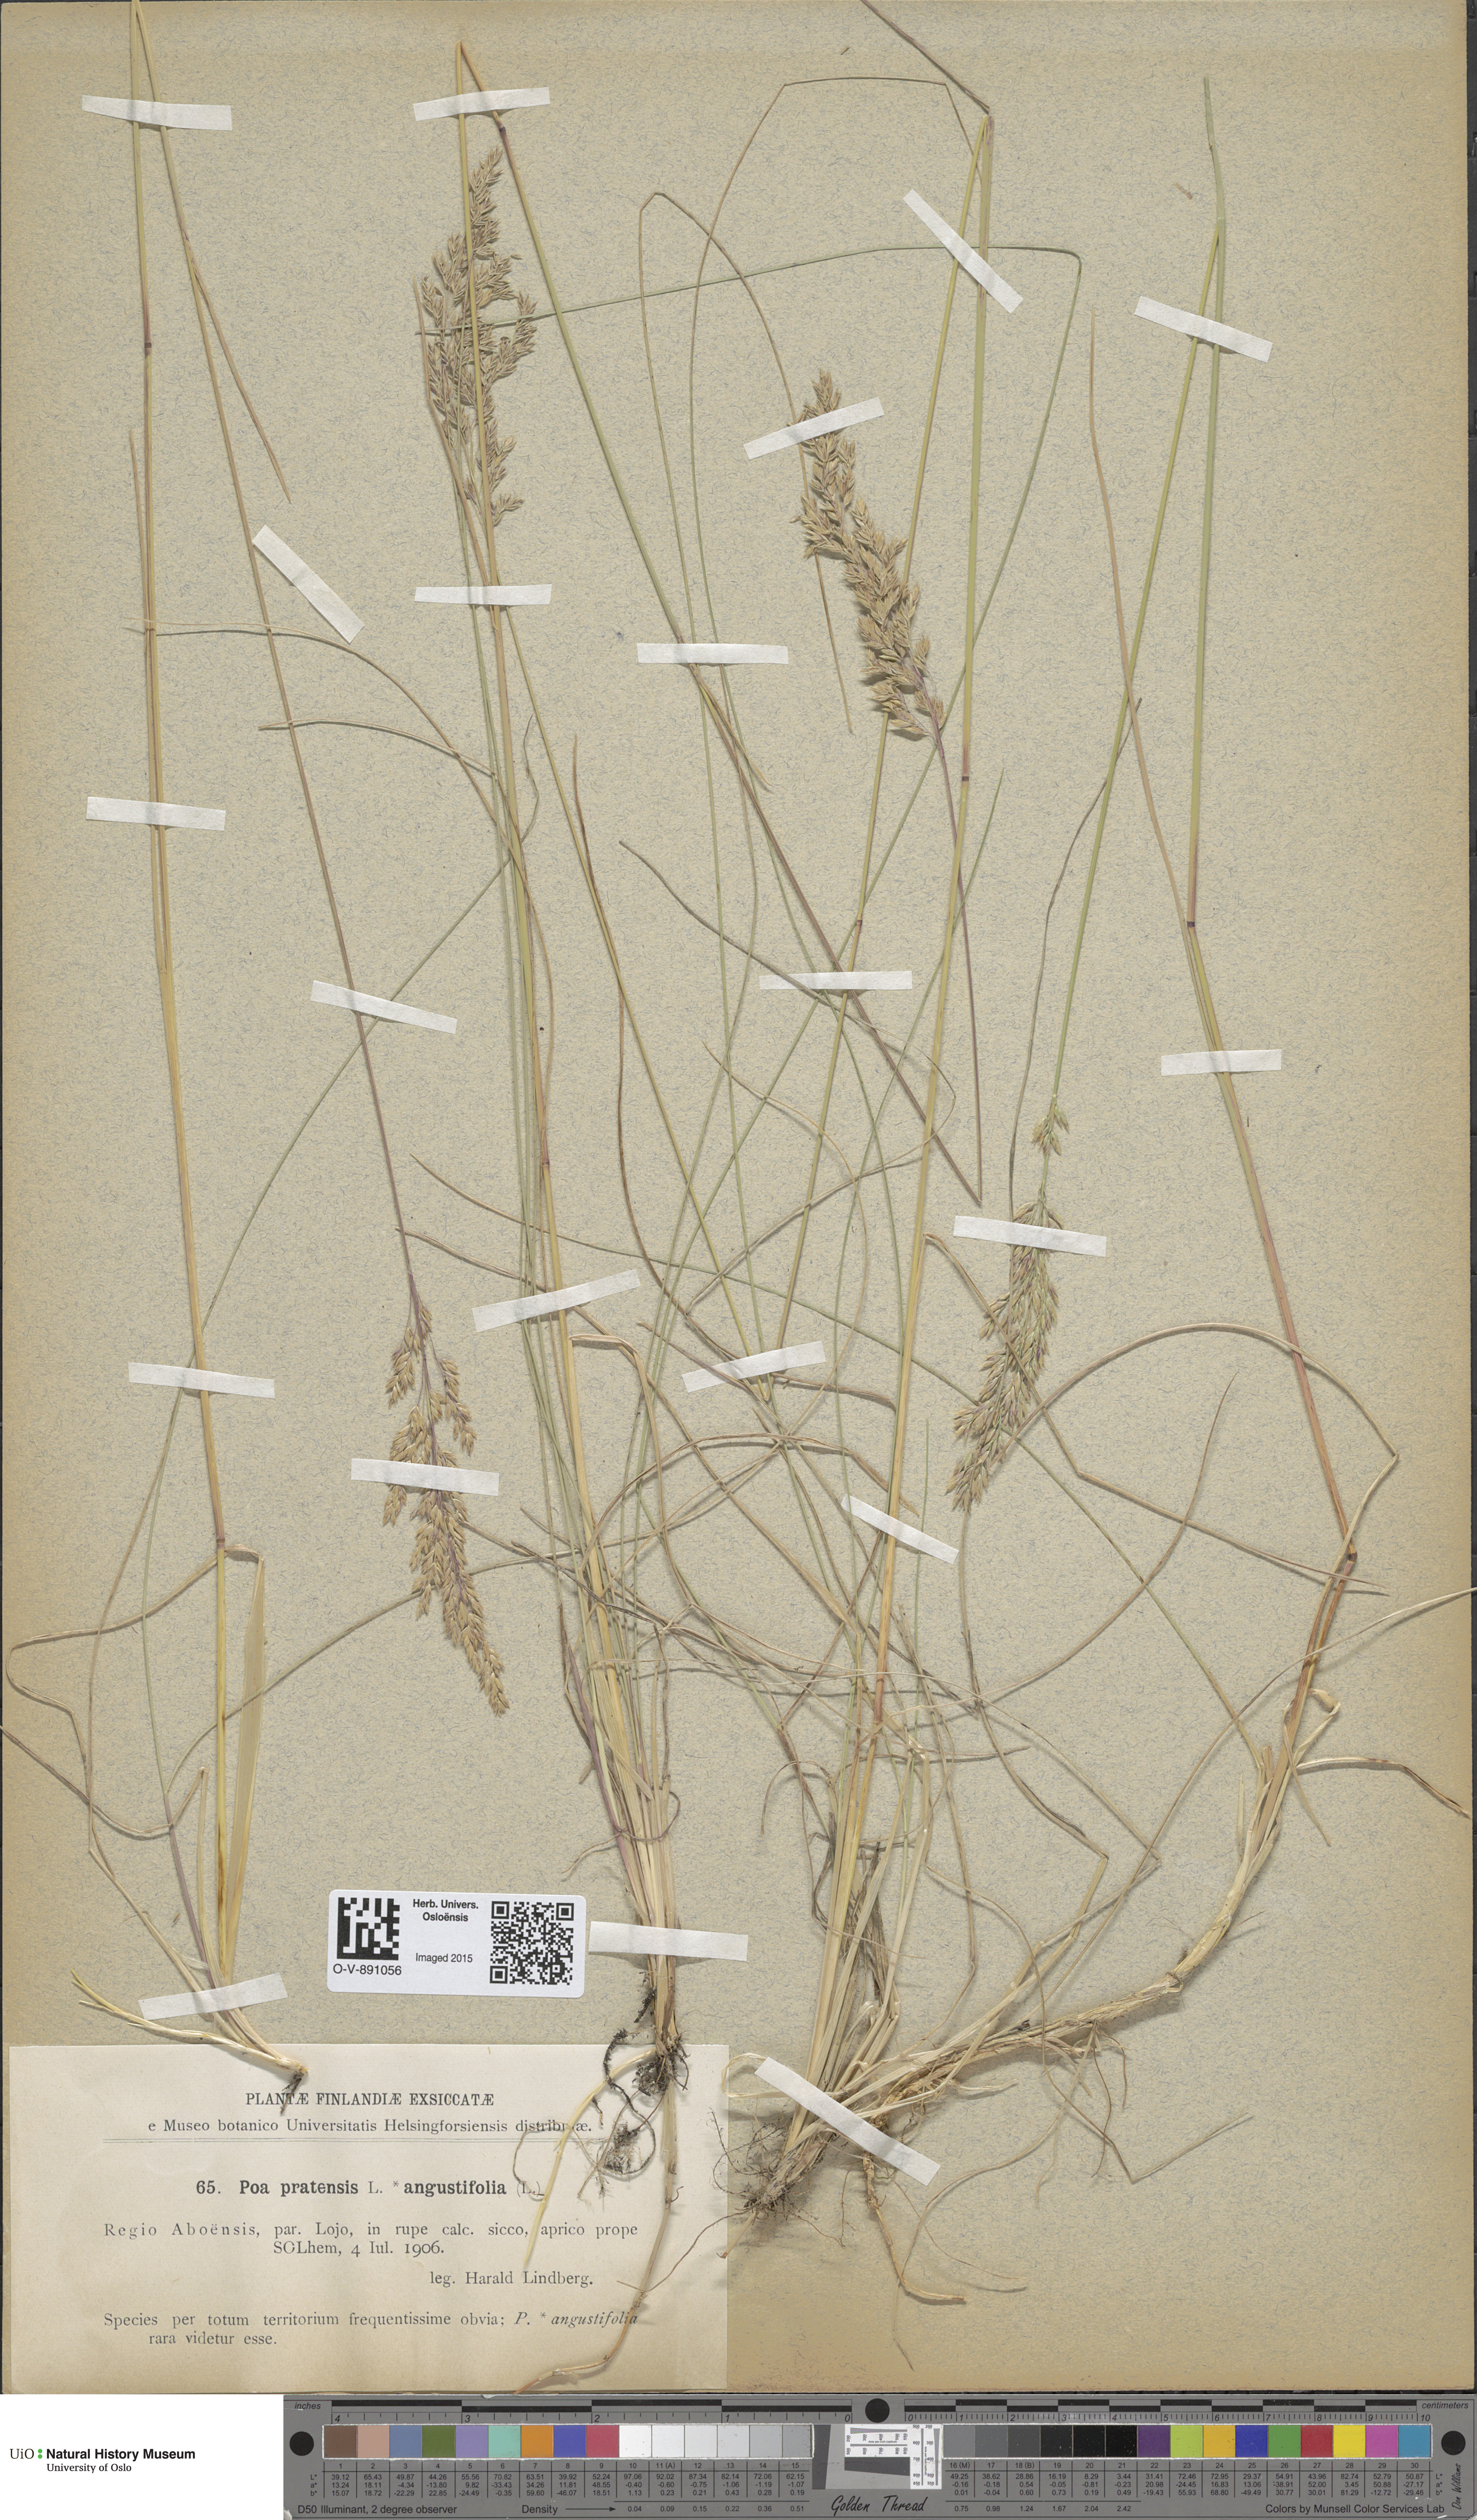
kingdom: Plantae
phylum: Tracheophyta
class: Liliopsida
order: Poales
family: Poaceae
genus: Poa
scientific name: Poa angustifolia
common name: Narrow-leaved meadow-grass
